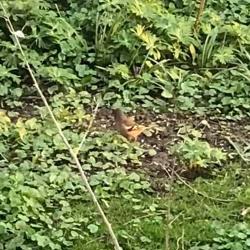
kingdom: Animalia
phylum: Chordata
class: Aves
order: Passeriformes
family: Fringillidae
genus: Fringilla
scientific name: Fringilla coelebs
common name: Bogfinke
